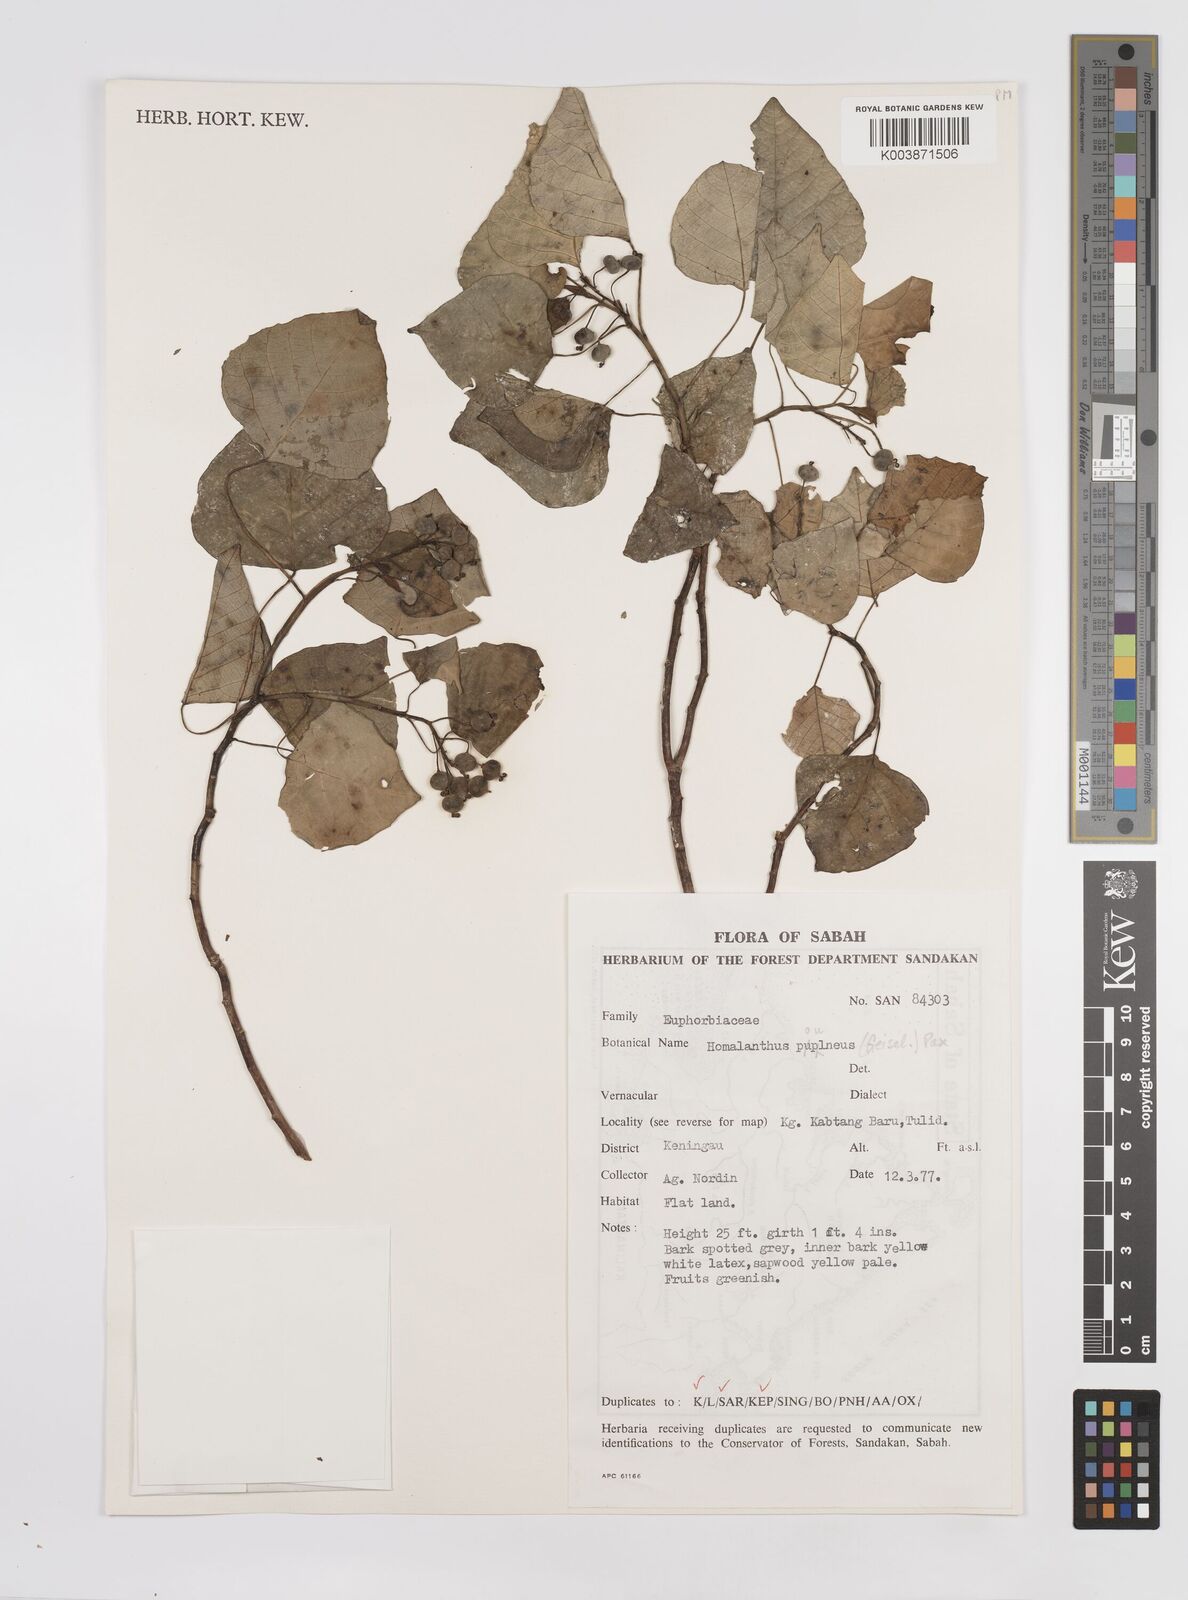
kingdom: Plantae
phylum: Tracheophyta
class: Magnoliopsida
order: Malpighiales
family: Euphorbiaceae
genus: Homalanthus
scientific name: Homalanthus populneus
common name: Spurge
